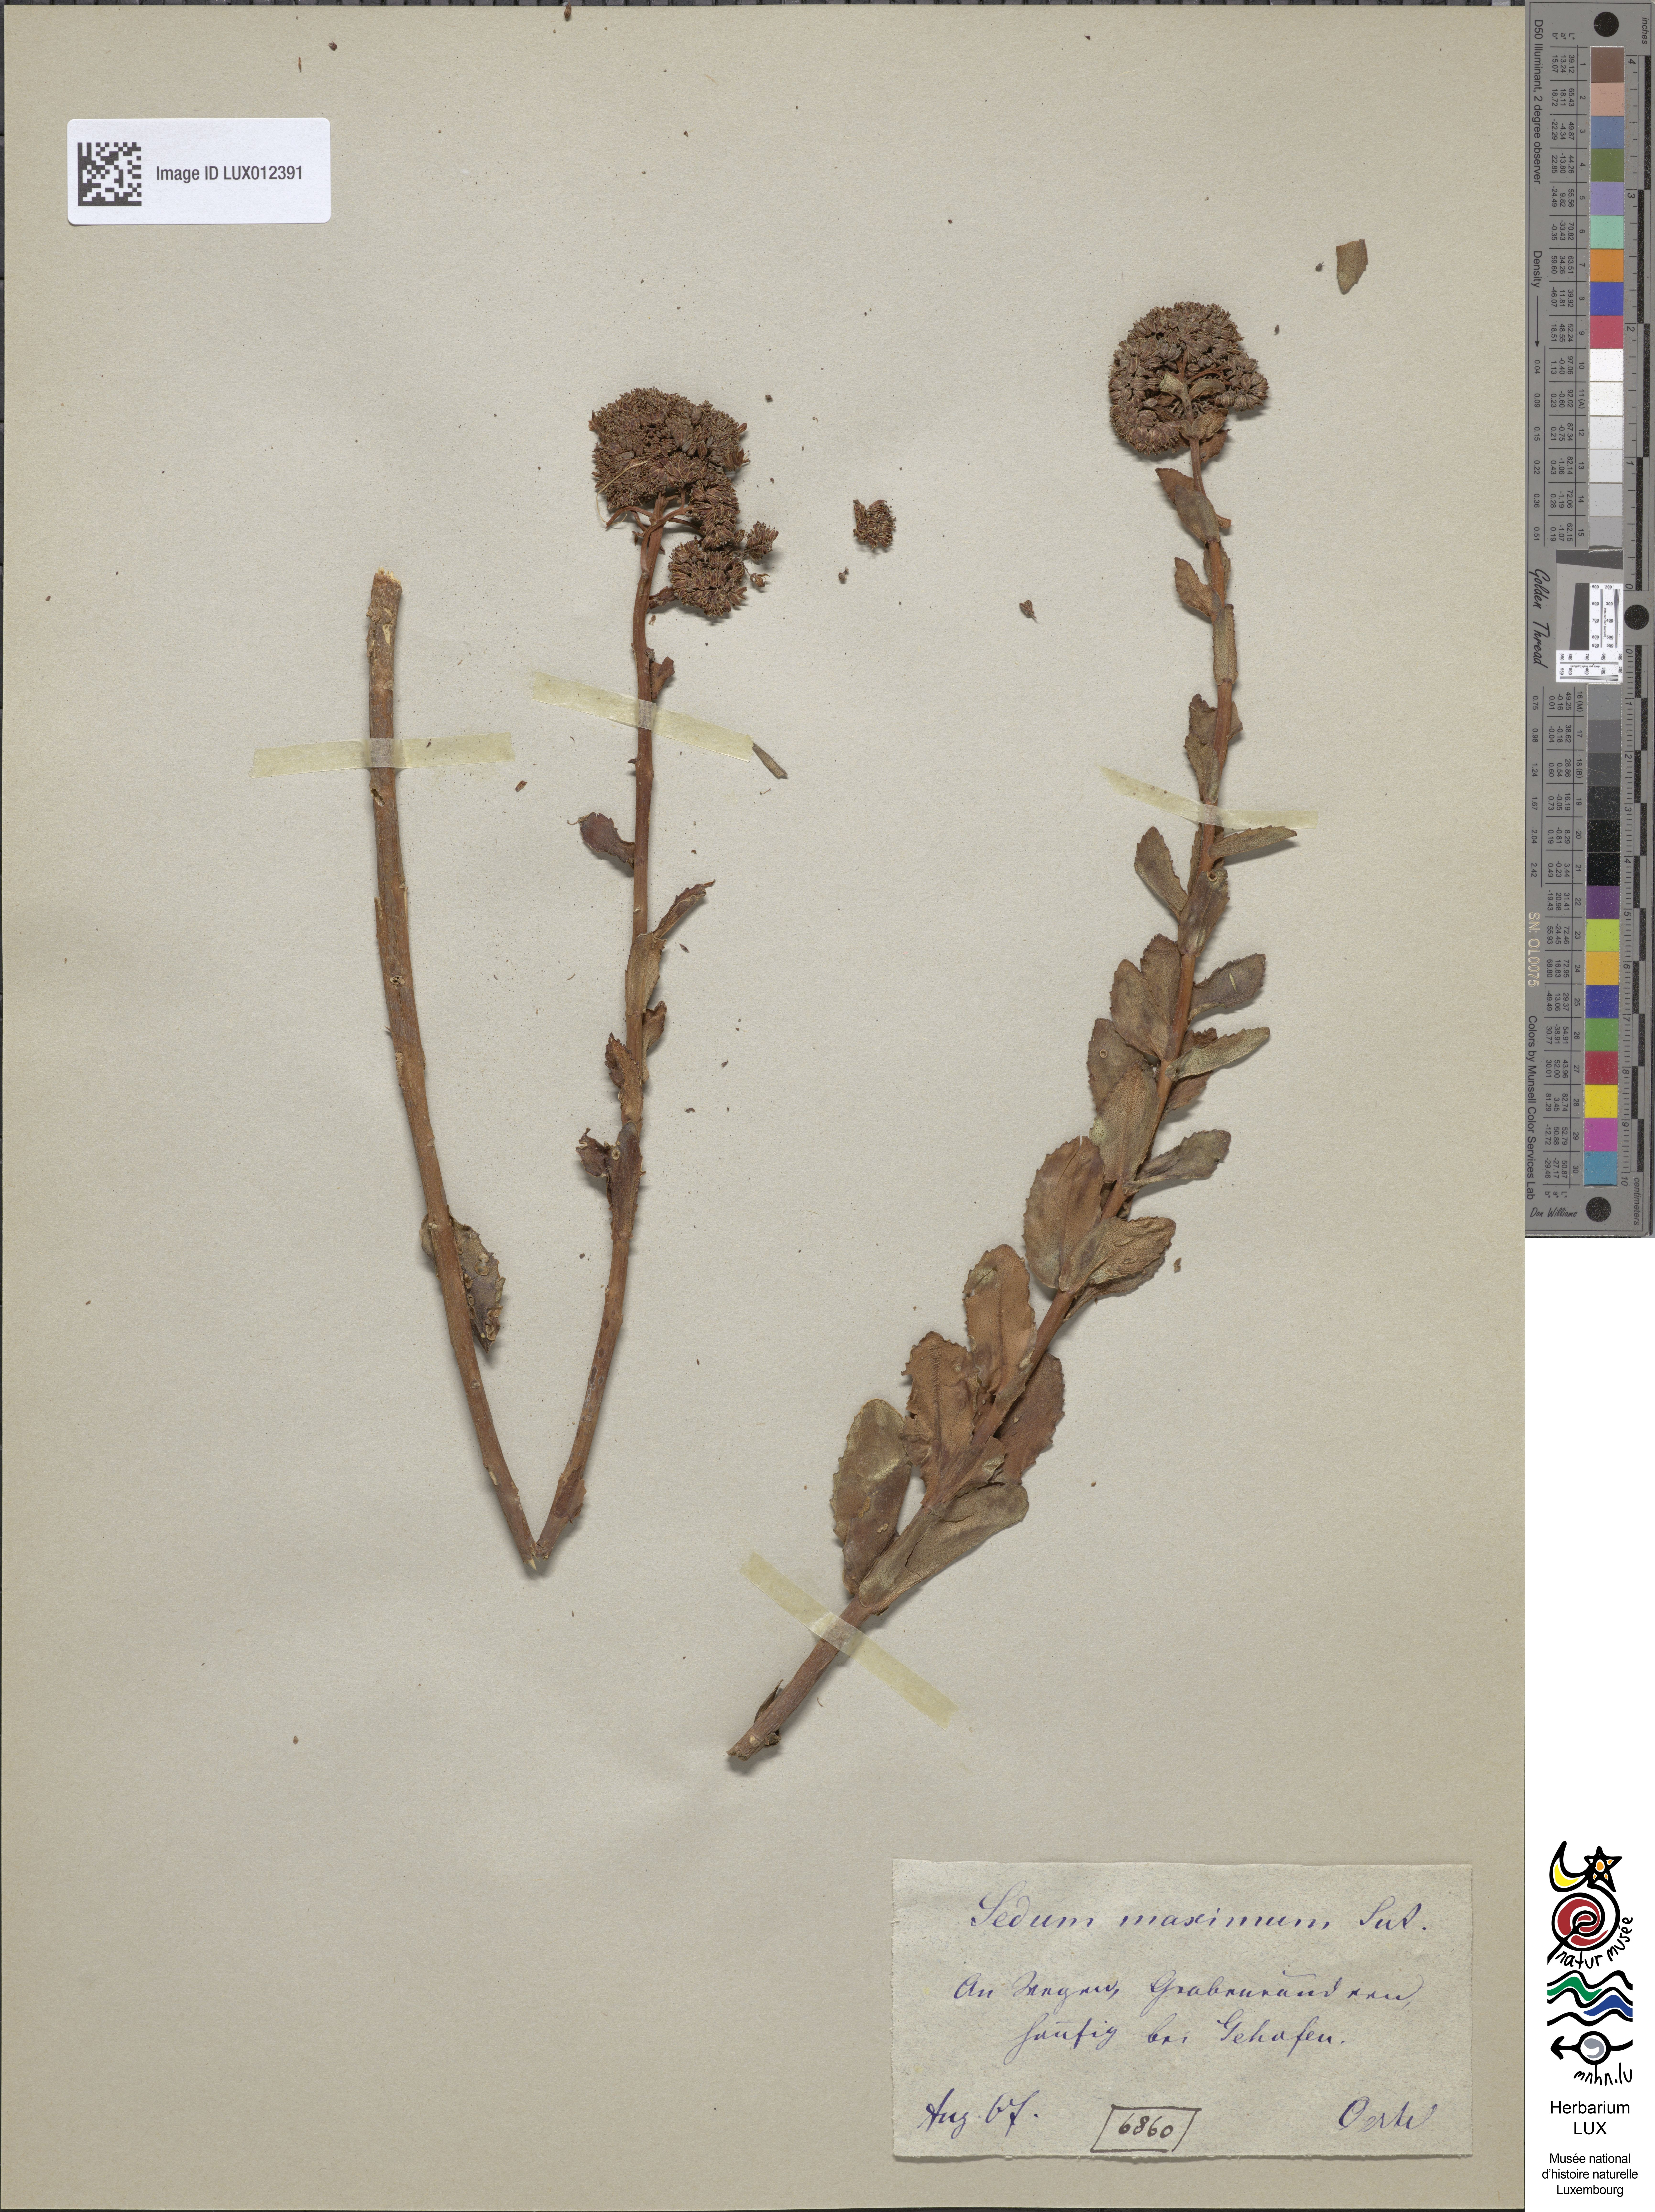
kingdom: Plantae
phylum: Tracheophyta
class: Magnoliopsida
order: Saxifragales
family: Crassulaceae
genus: Hylotelephium
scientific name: Hylotelephium maximum
